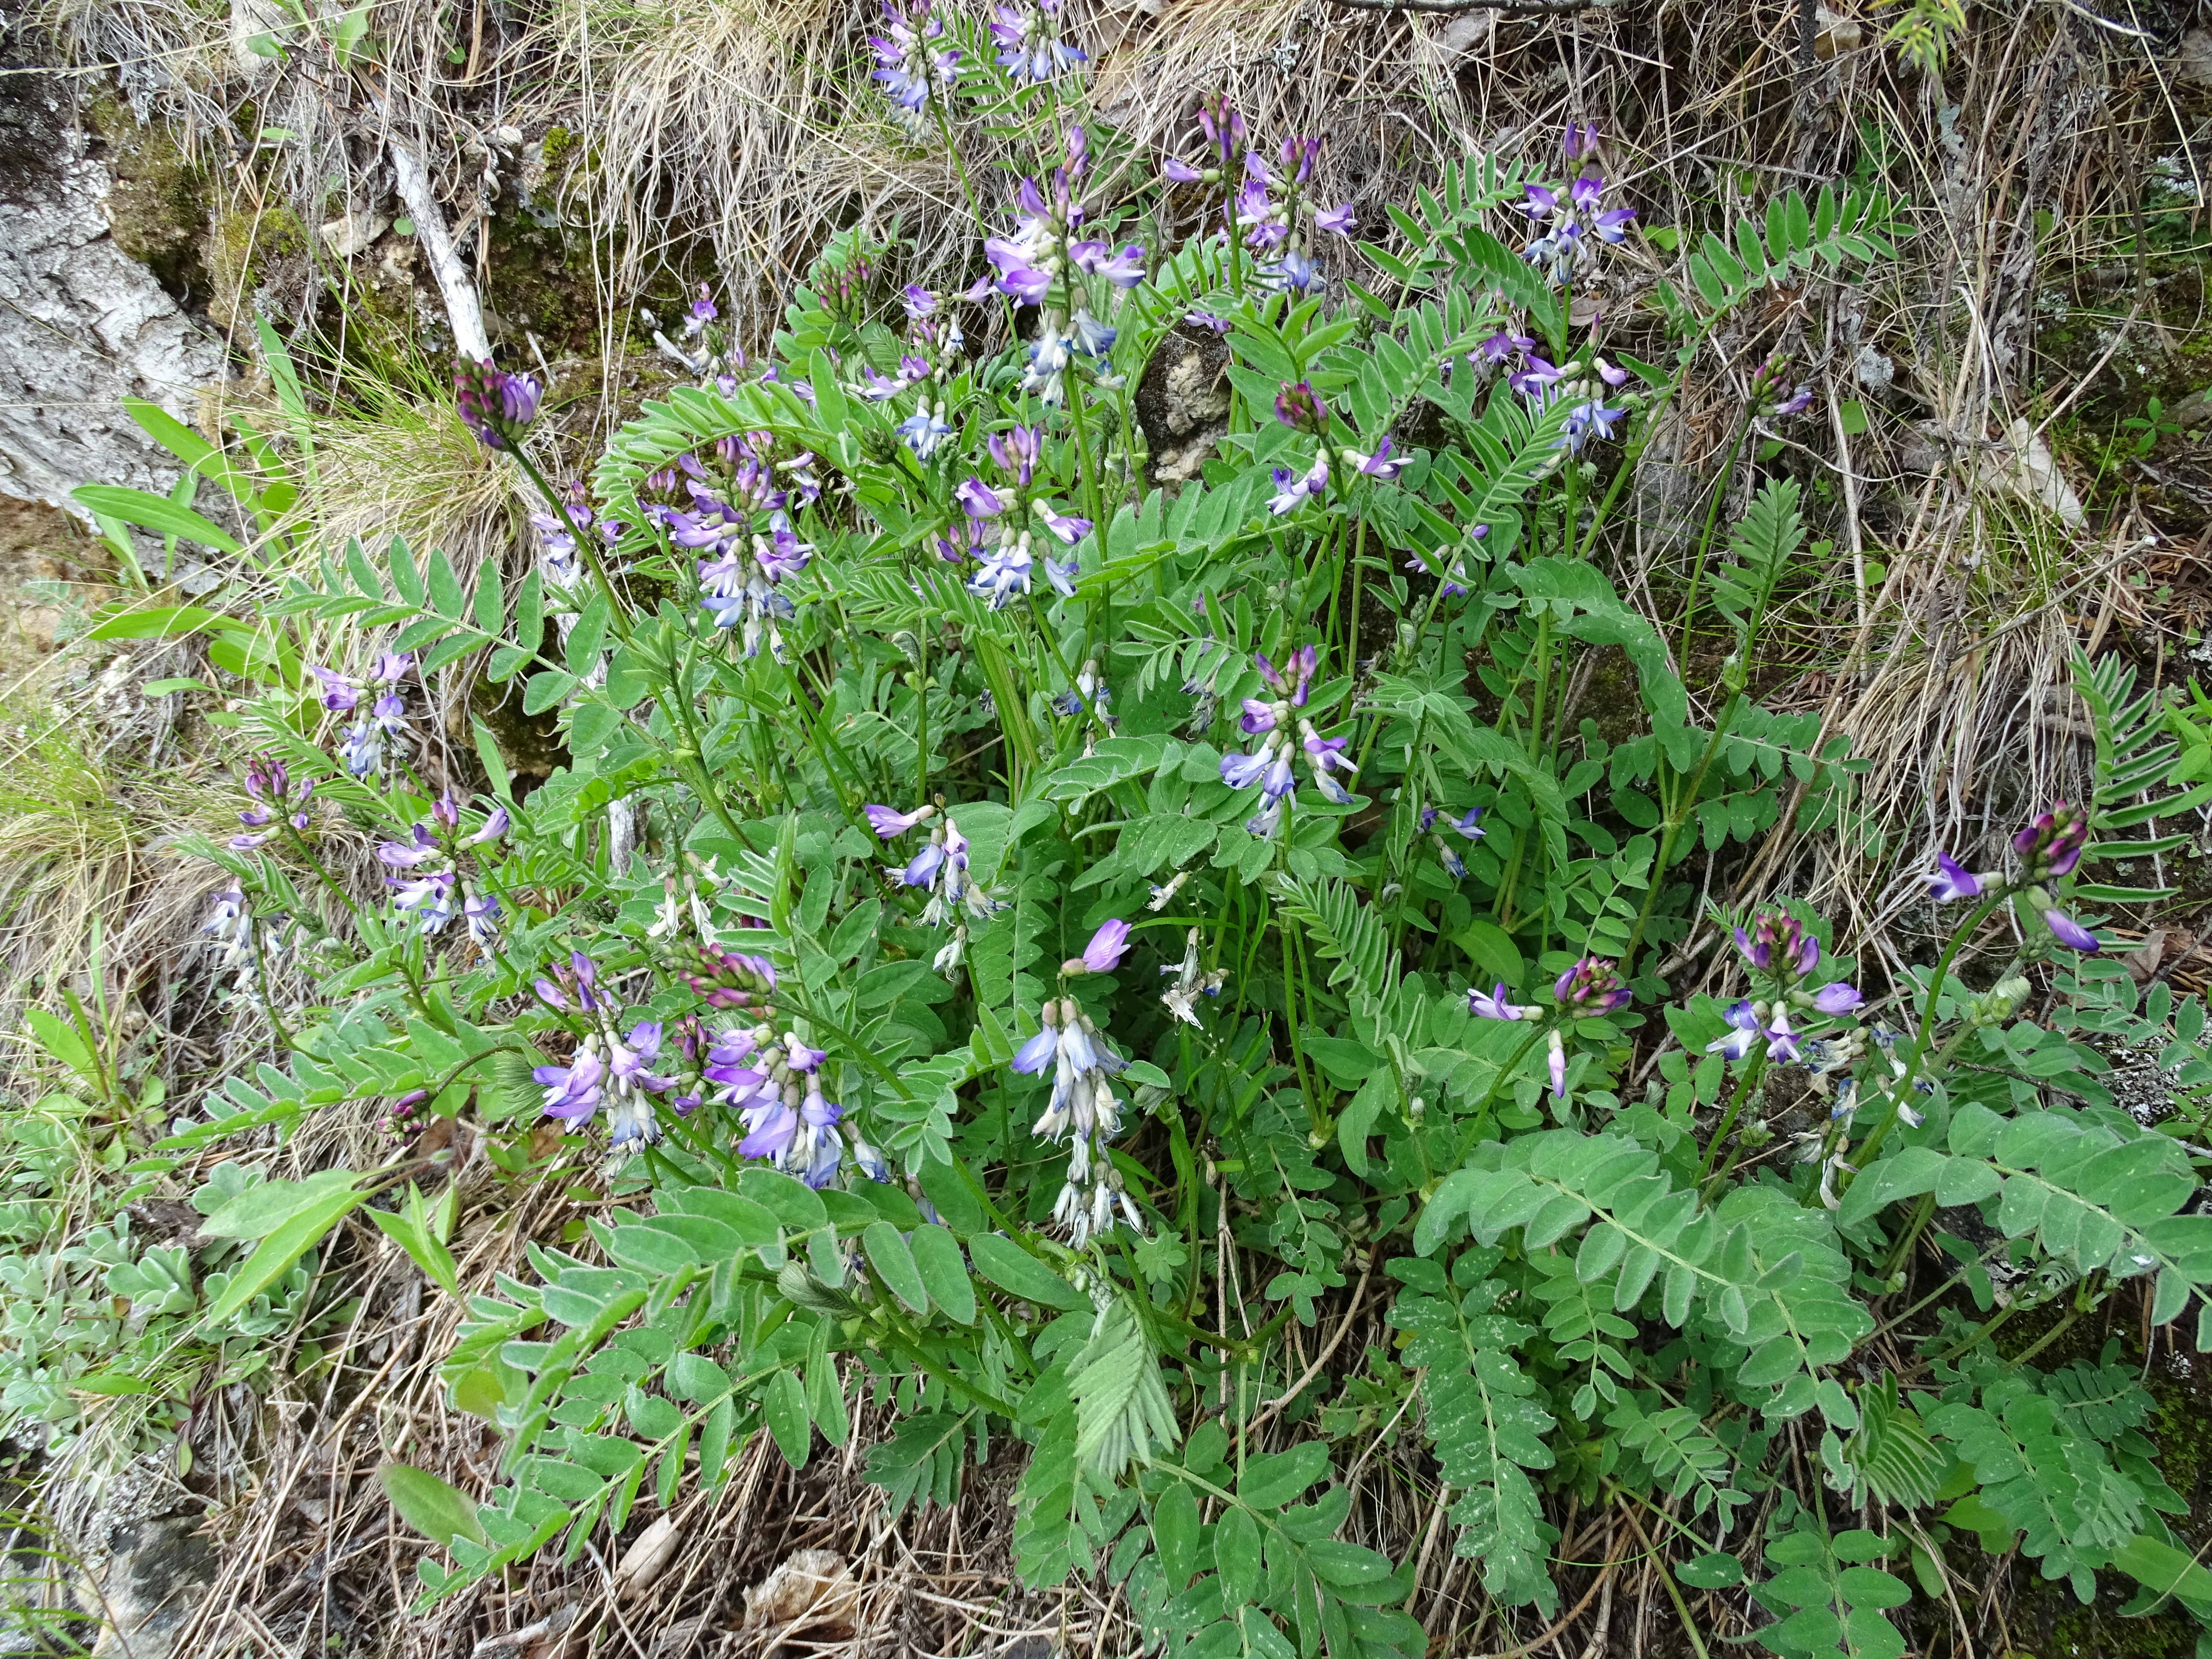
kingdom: Plantae
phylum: Tracheophyta
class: Magnoliopsida
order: Fabales
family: Fabaceae
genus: Astragalus
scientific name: Astragalus alpinus
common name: Alpine milk-vetch
